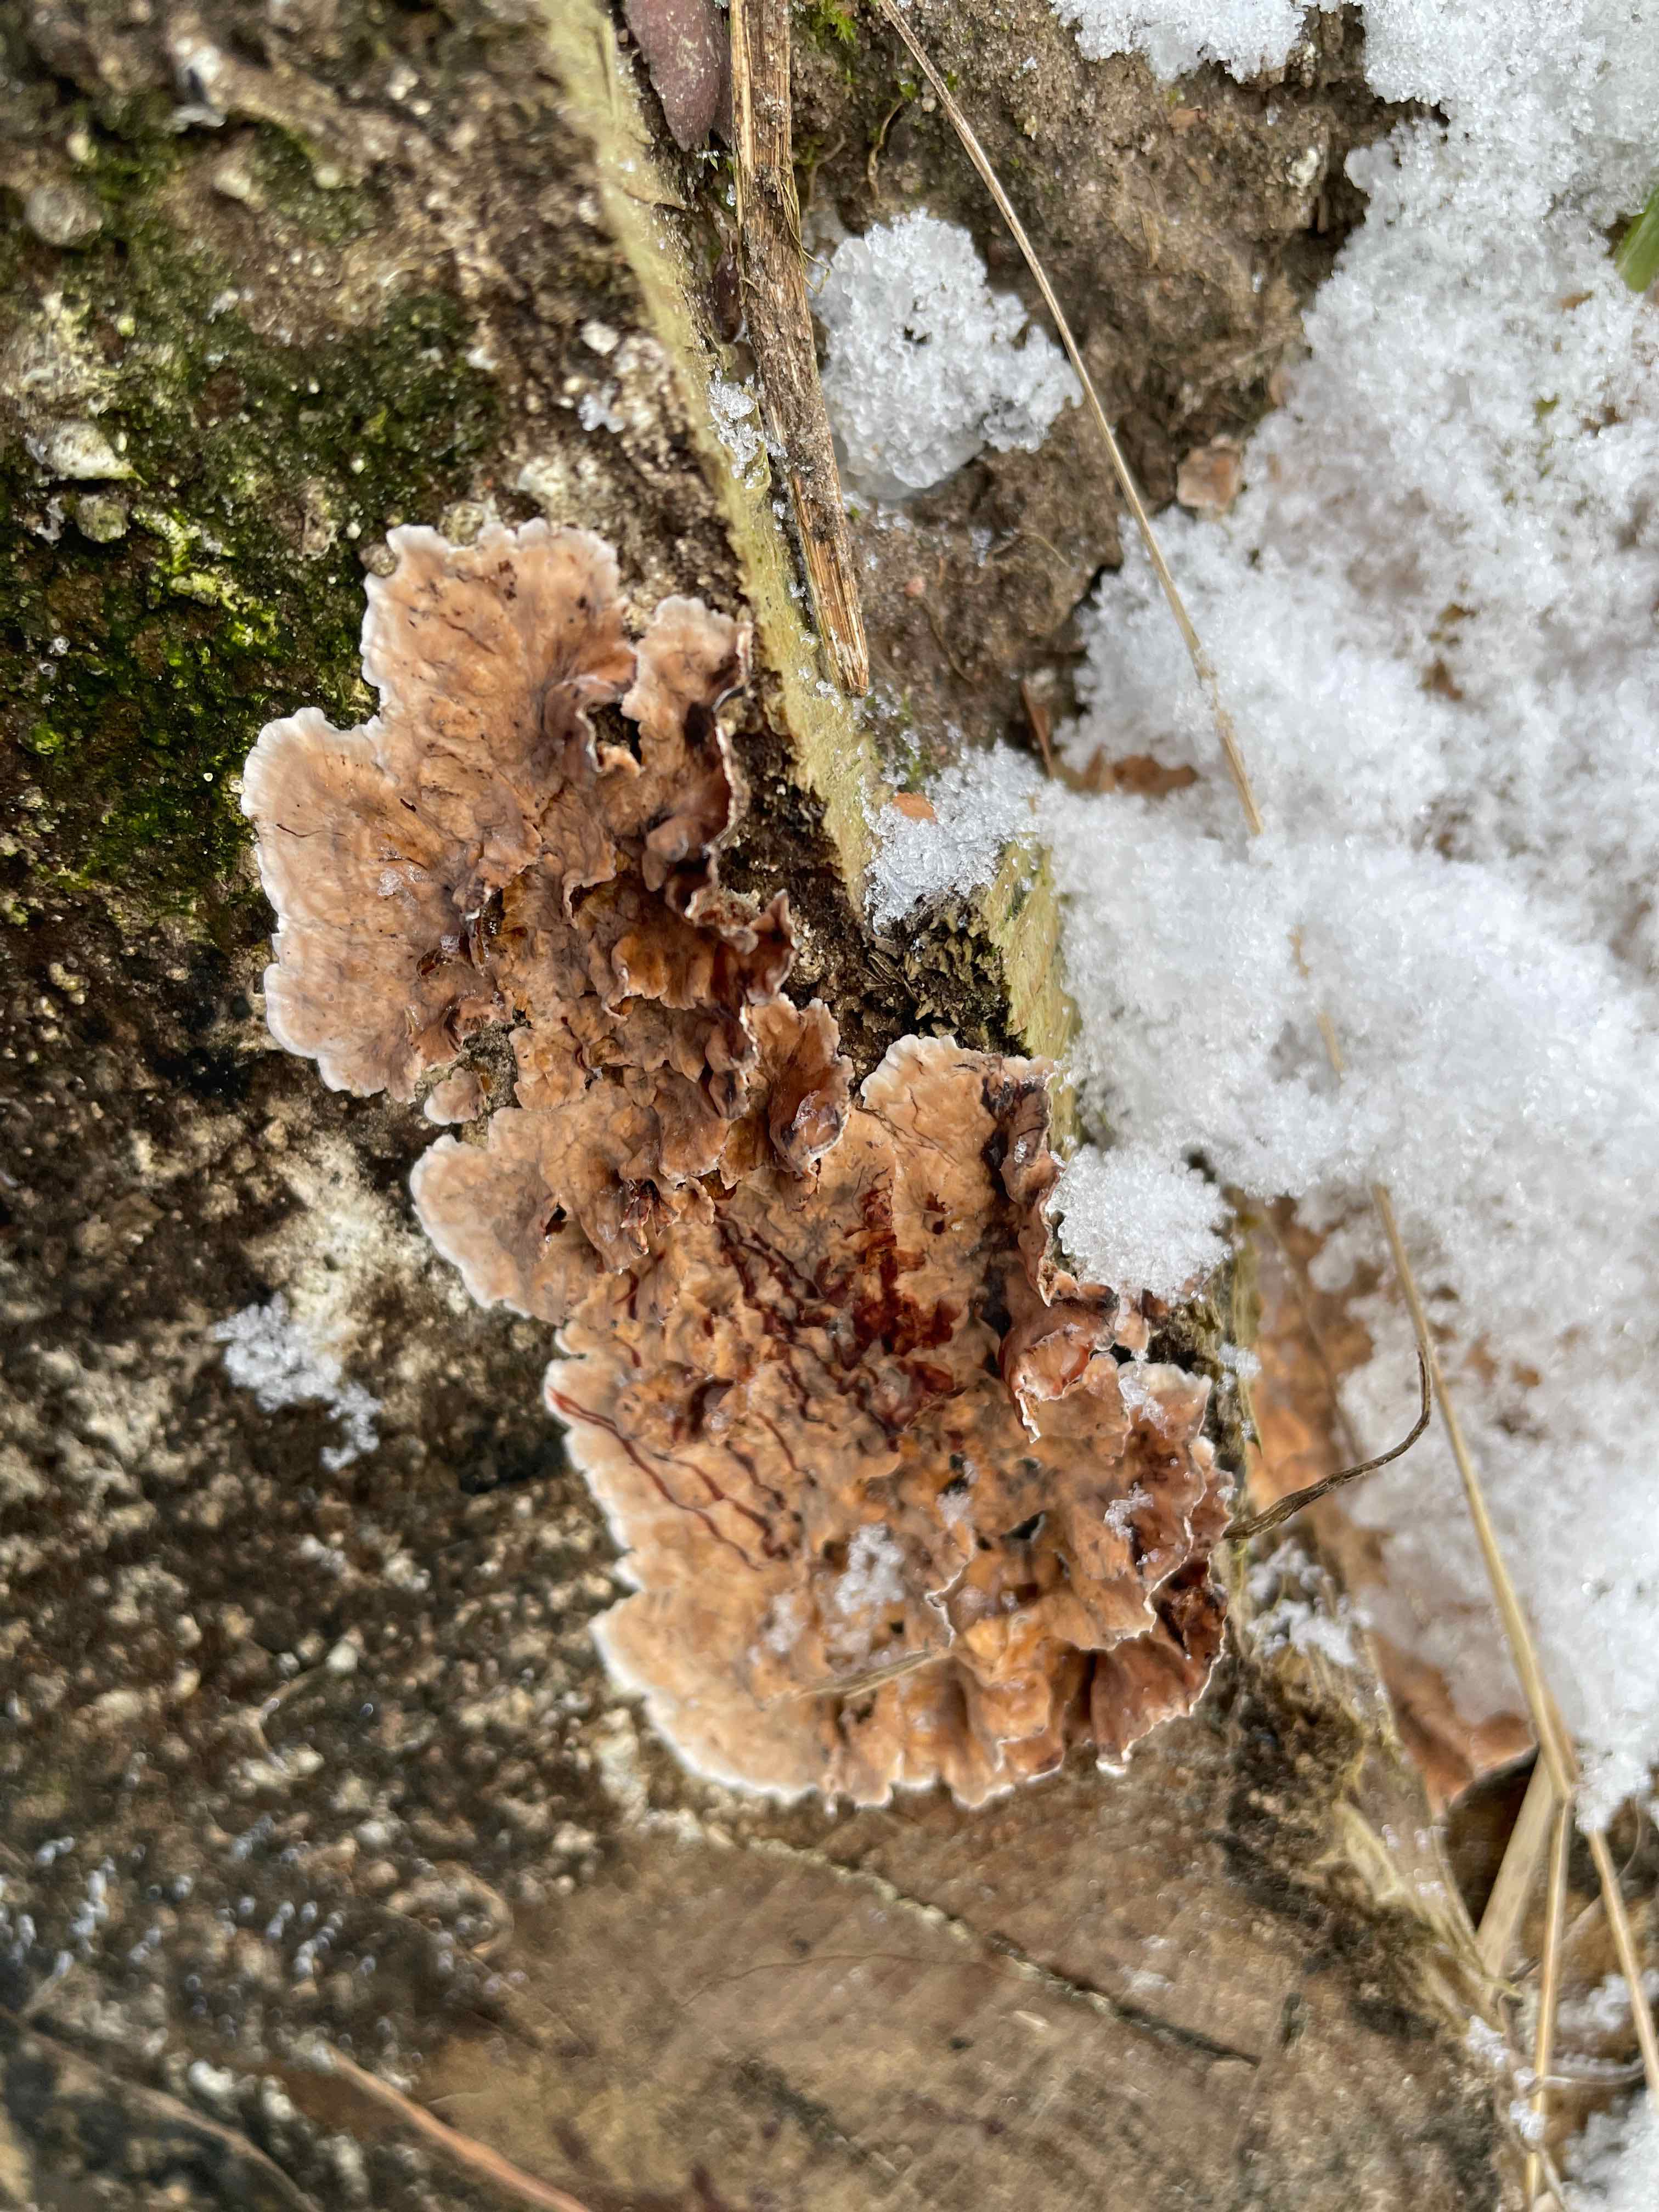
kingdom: Fungi
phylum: Basidiomycota
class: Agaricomycetes
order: Russulales
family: Stereaceae
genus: Stereum
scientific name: Stereum sanguinolentum
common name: blødende lædersvamp
